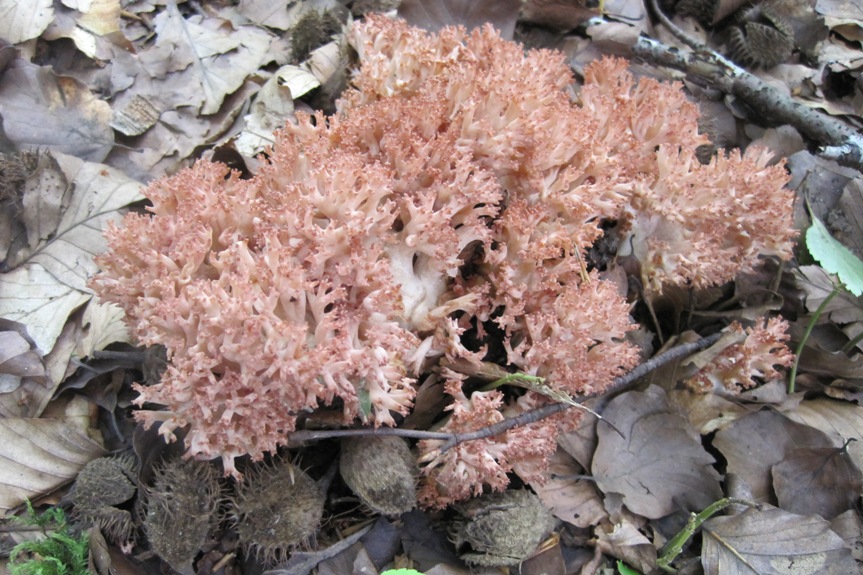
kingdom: Fungi
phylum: Basidiomycota
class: Agaricomycetes
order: Gomphales
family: Gomphaceae
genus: Ramaria
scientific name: Ramaria botrytis
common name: drue-koralsvamp
